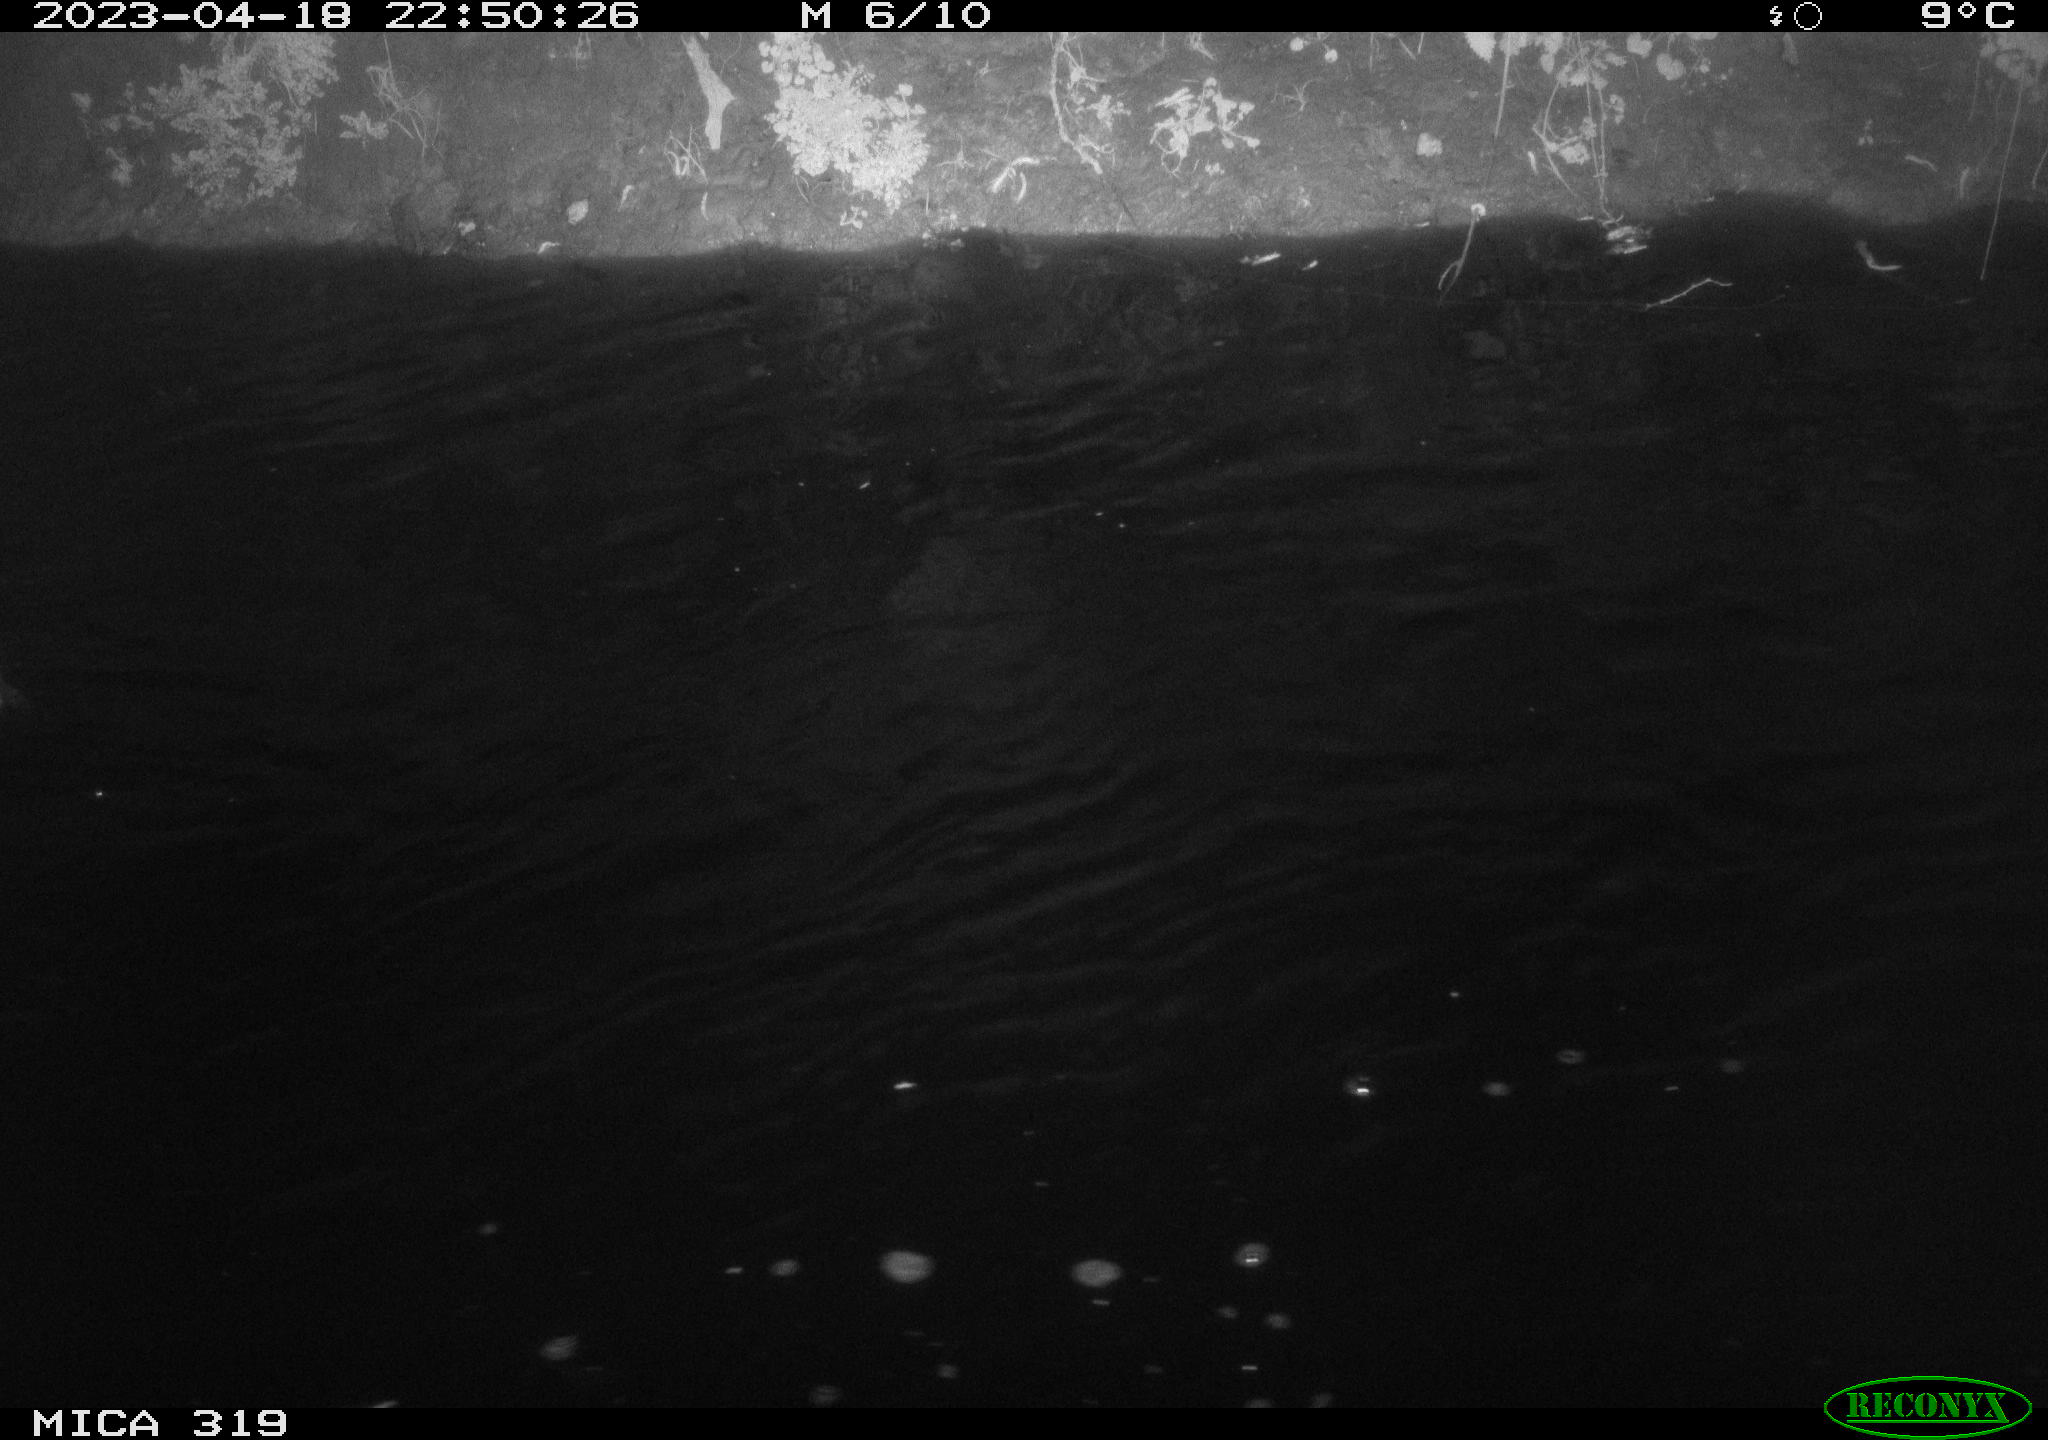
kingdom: Animalia
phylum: Chordata
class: Aves
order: Anseriformes
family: Anatidae
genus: Anas
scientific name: Anas
